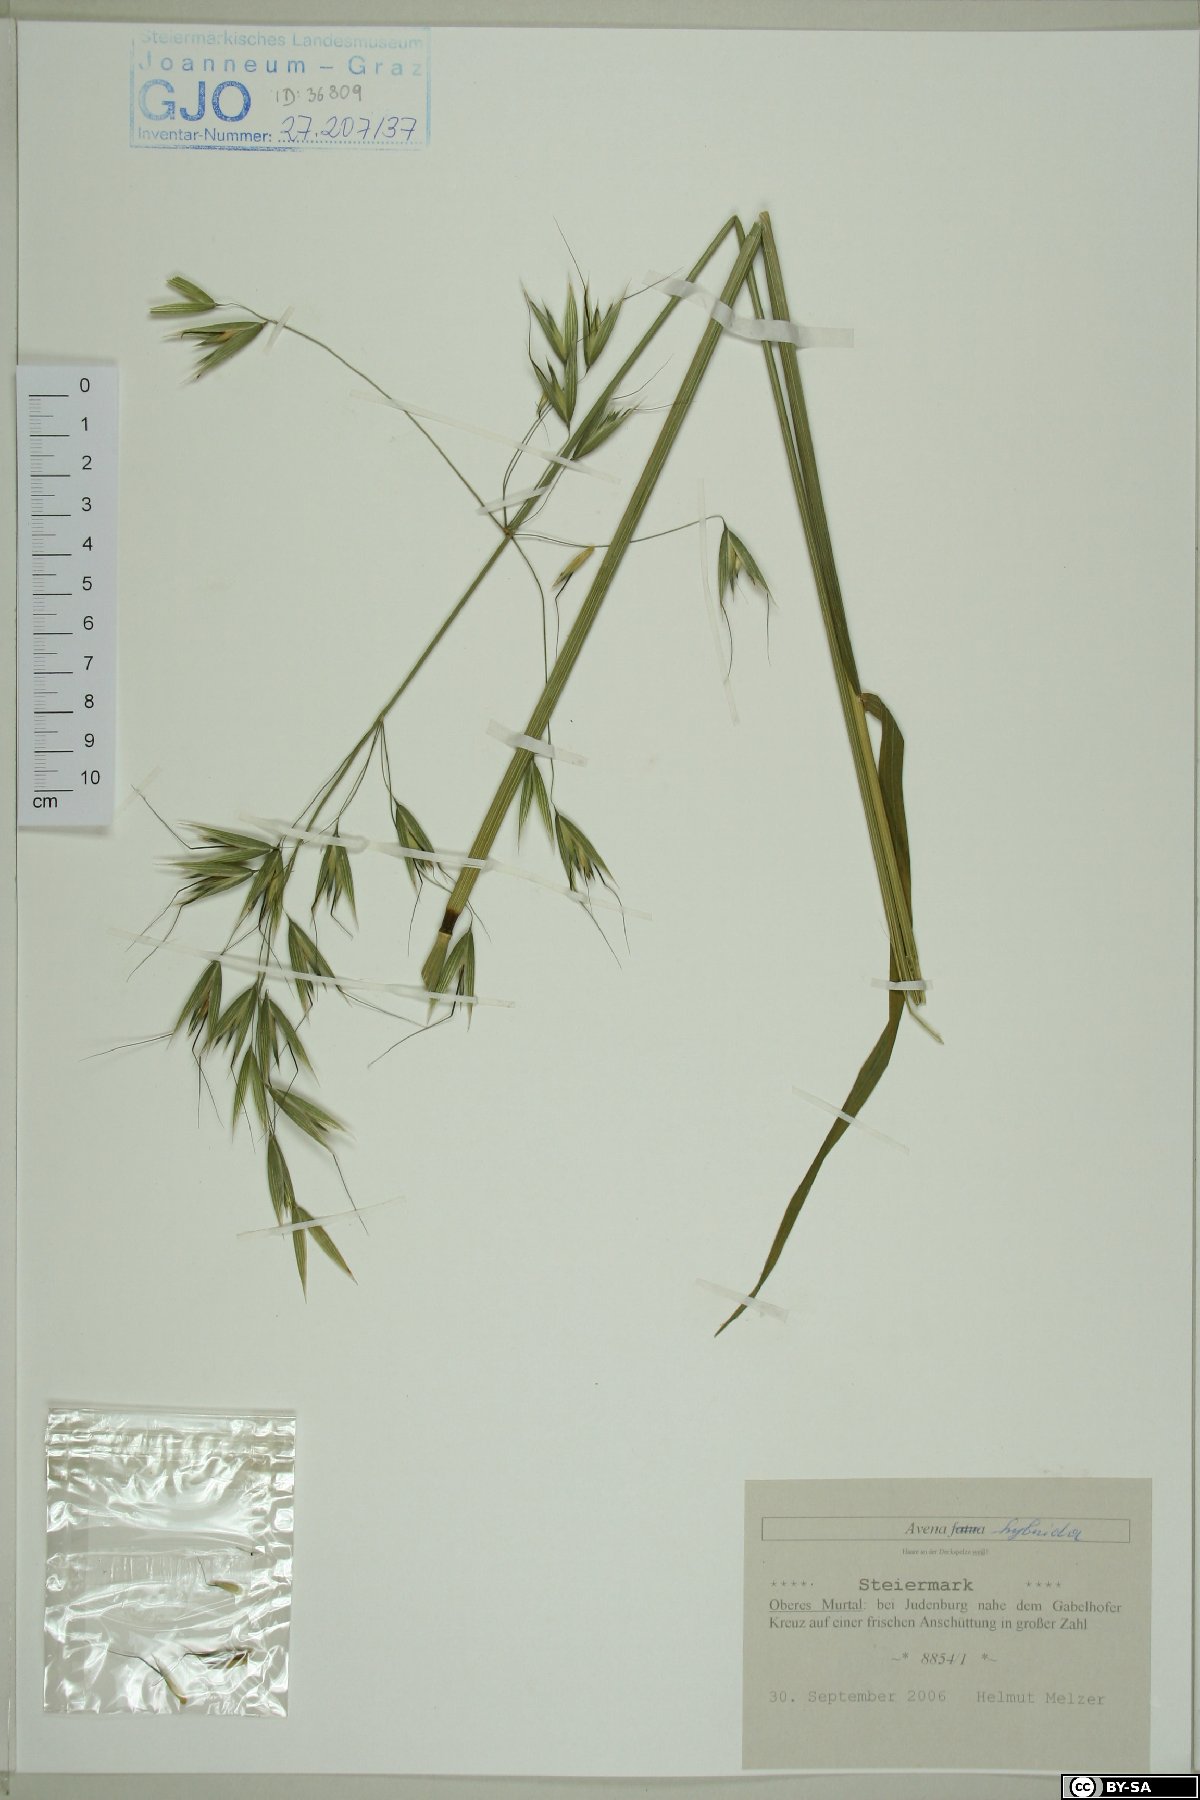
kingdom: Plantae
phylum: Tracheophyta
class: Liliopsida
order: Poales
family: Poaceae
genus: Avena
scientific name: Avena hybrida
